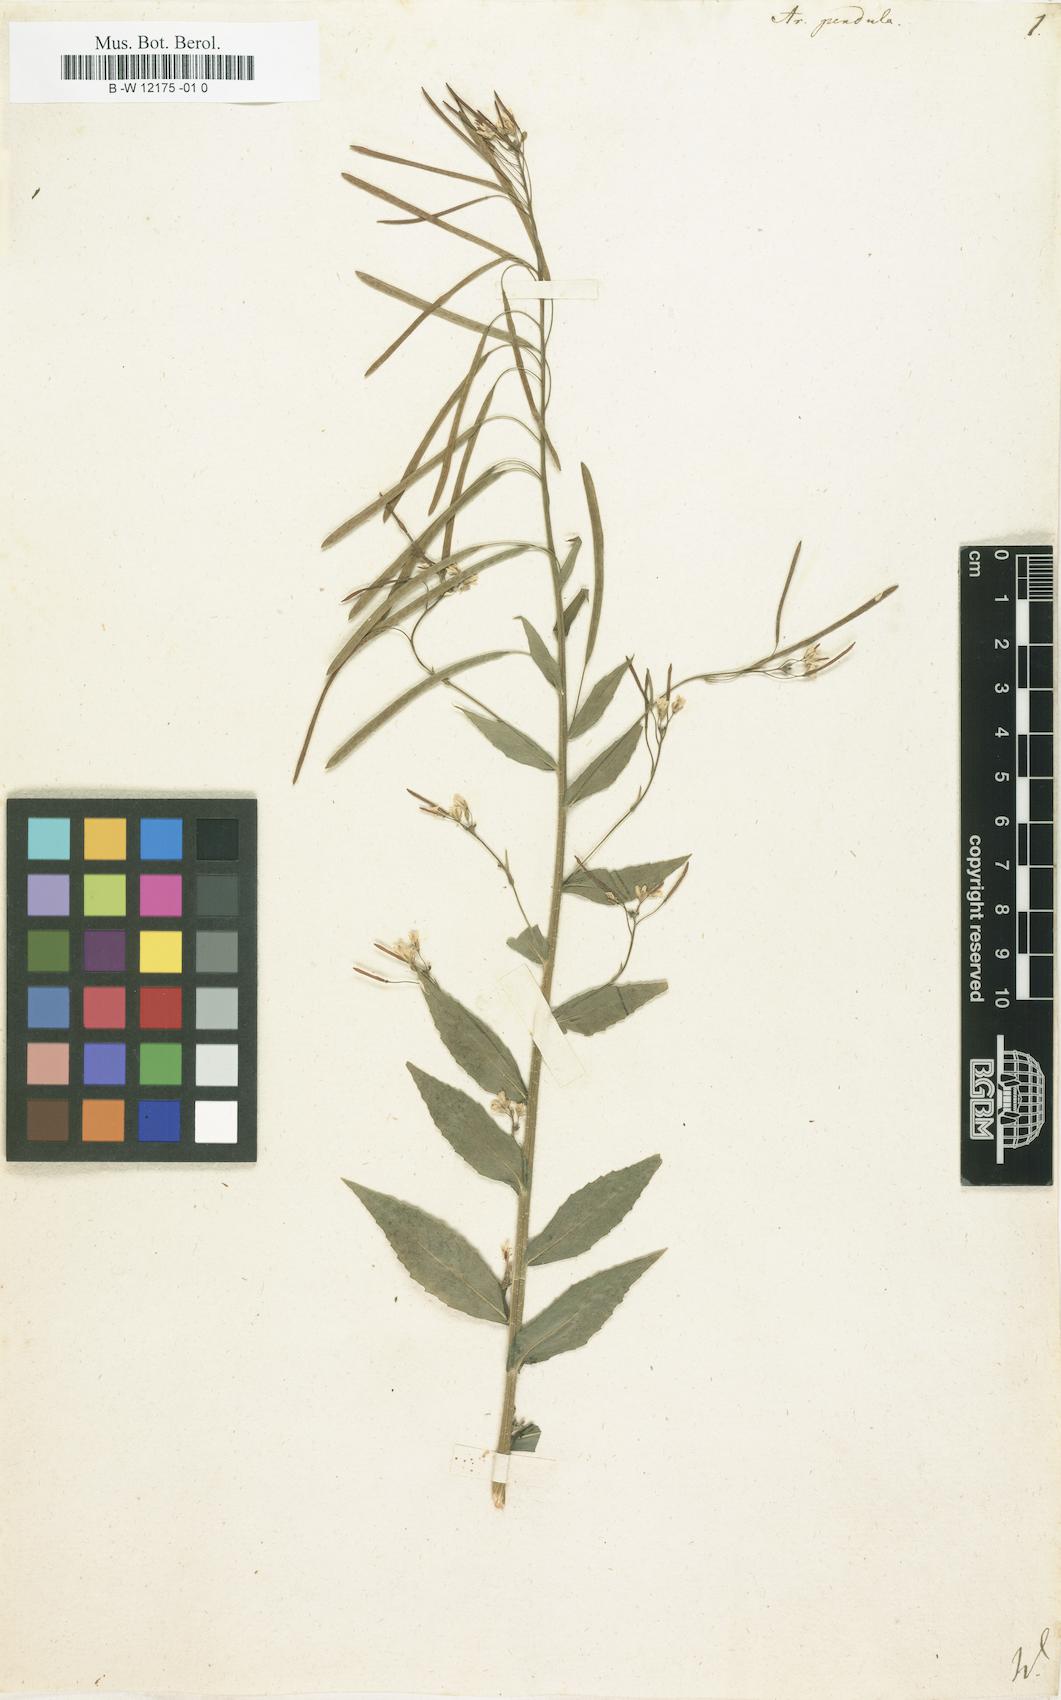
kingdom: Plantae
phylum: Tracheophyta
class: Magnoliopsida
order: Brassicales
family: Brassicaceae
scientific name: Brassicaceae
